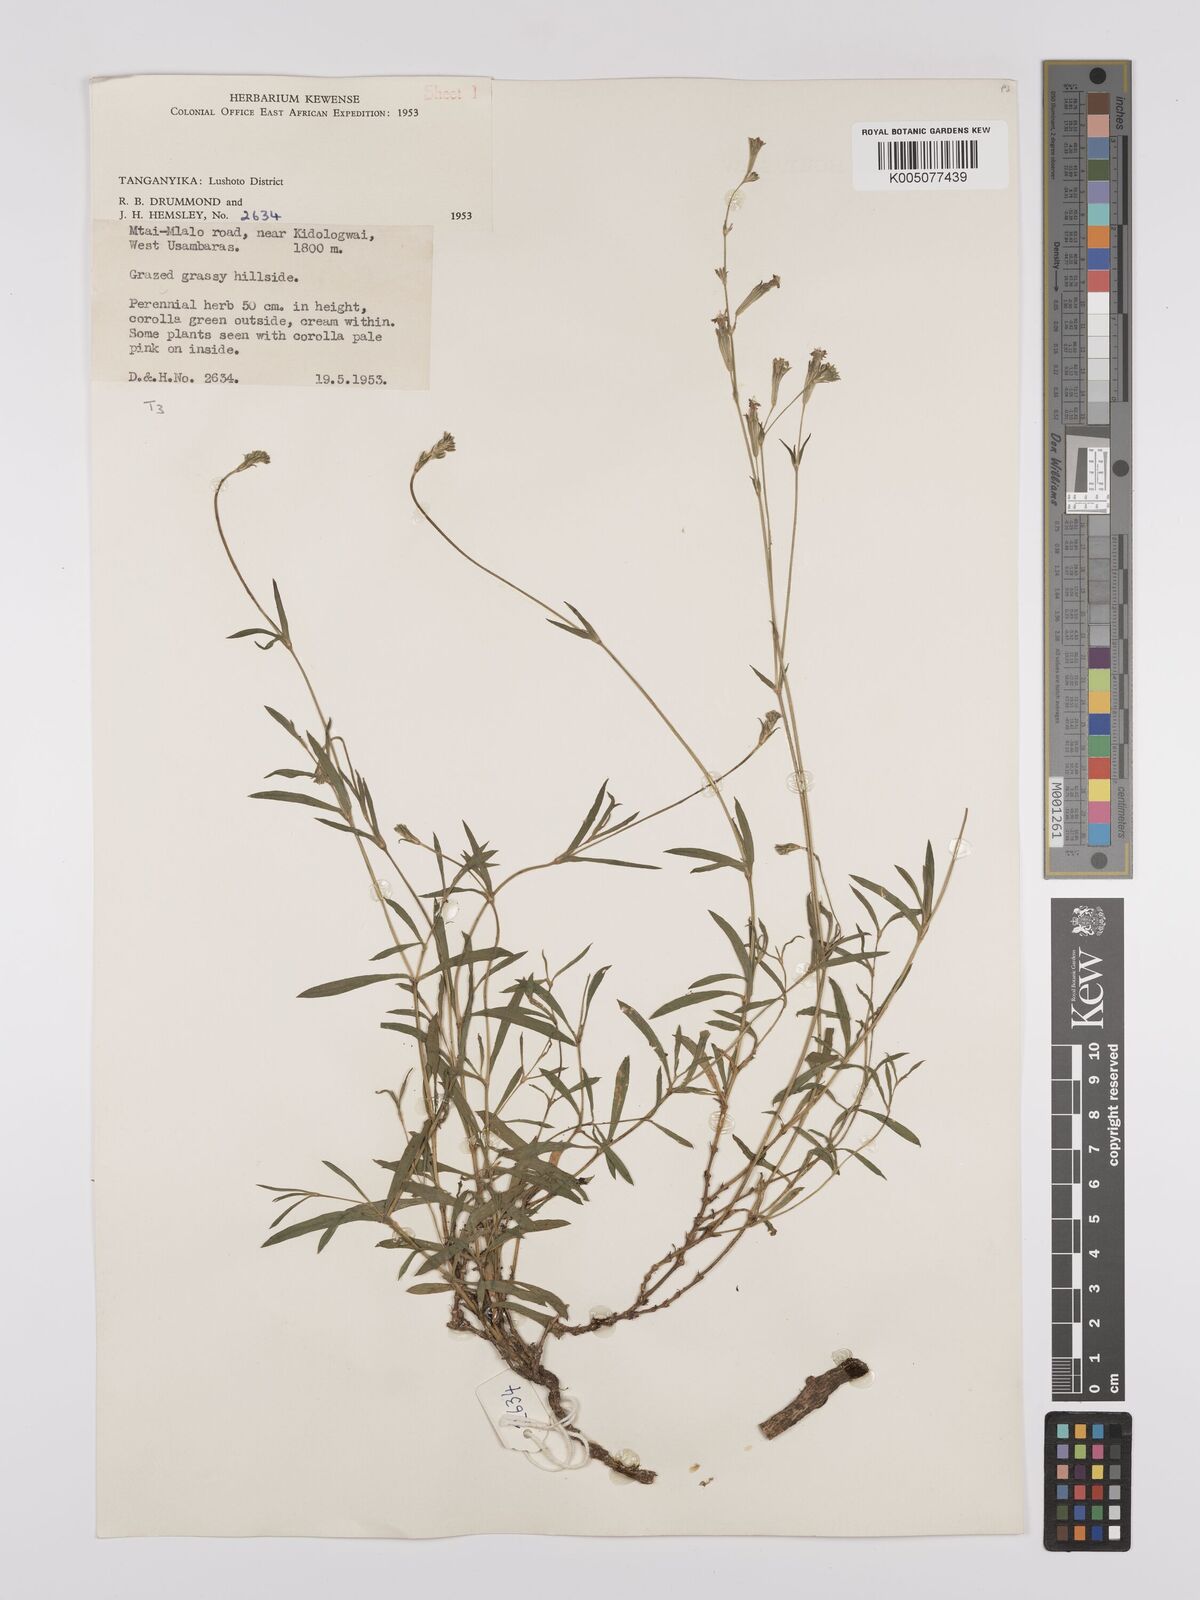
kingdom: Plantae
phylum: Tracheophyta
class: Magnoliopsida
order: Caryophyllales
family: Caryophyllaceae
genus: Silene
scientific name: Silene burchellii
